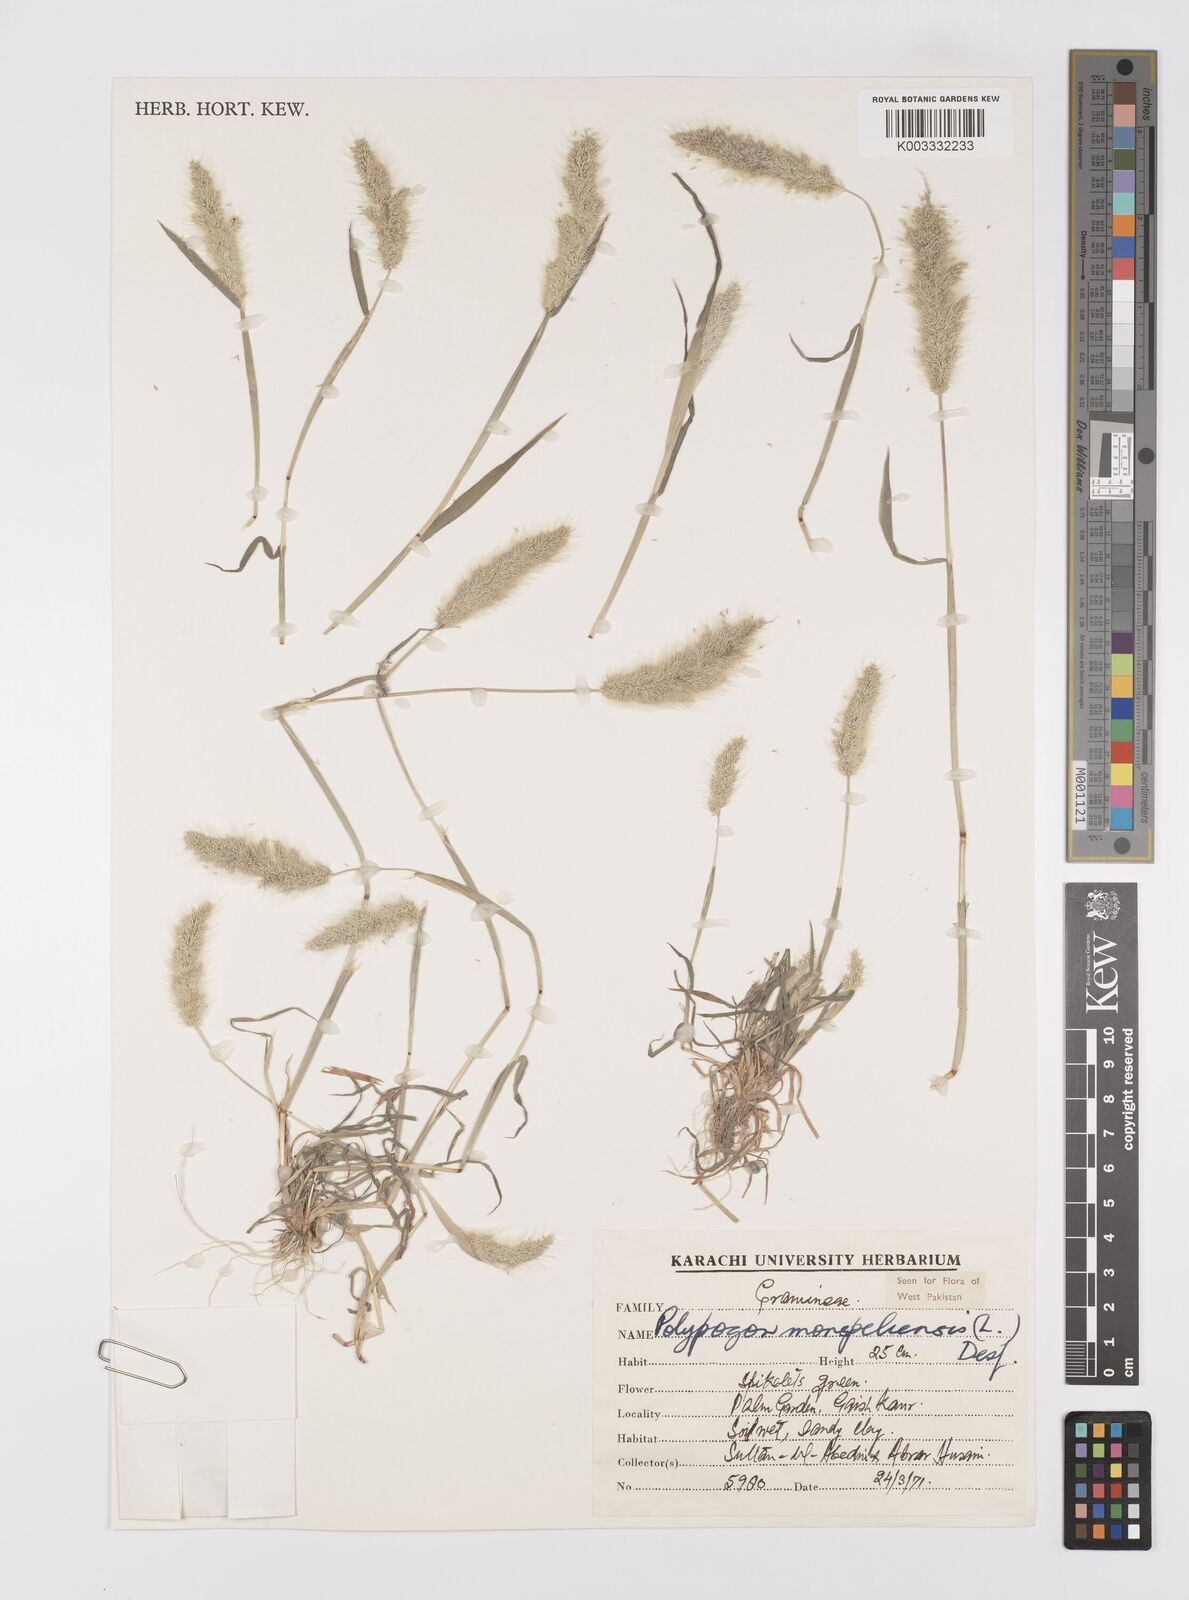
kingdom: Plantae
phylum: Tracheophyta
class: Liliopsida
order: Poales
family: Poaceae
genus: Polypogon
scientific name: Polypogon monspeliensis
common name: Annual rabbitsfoot grass
